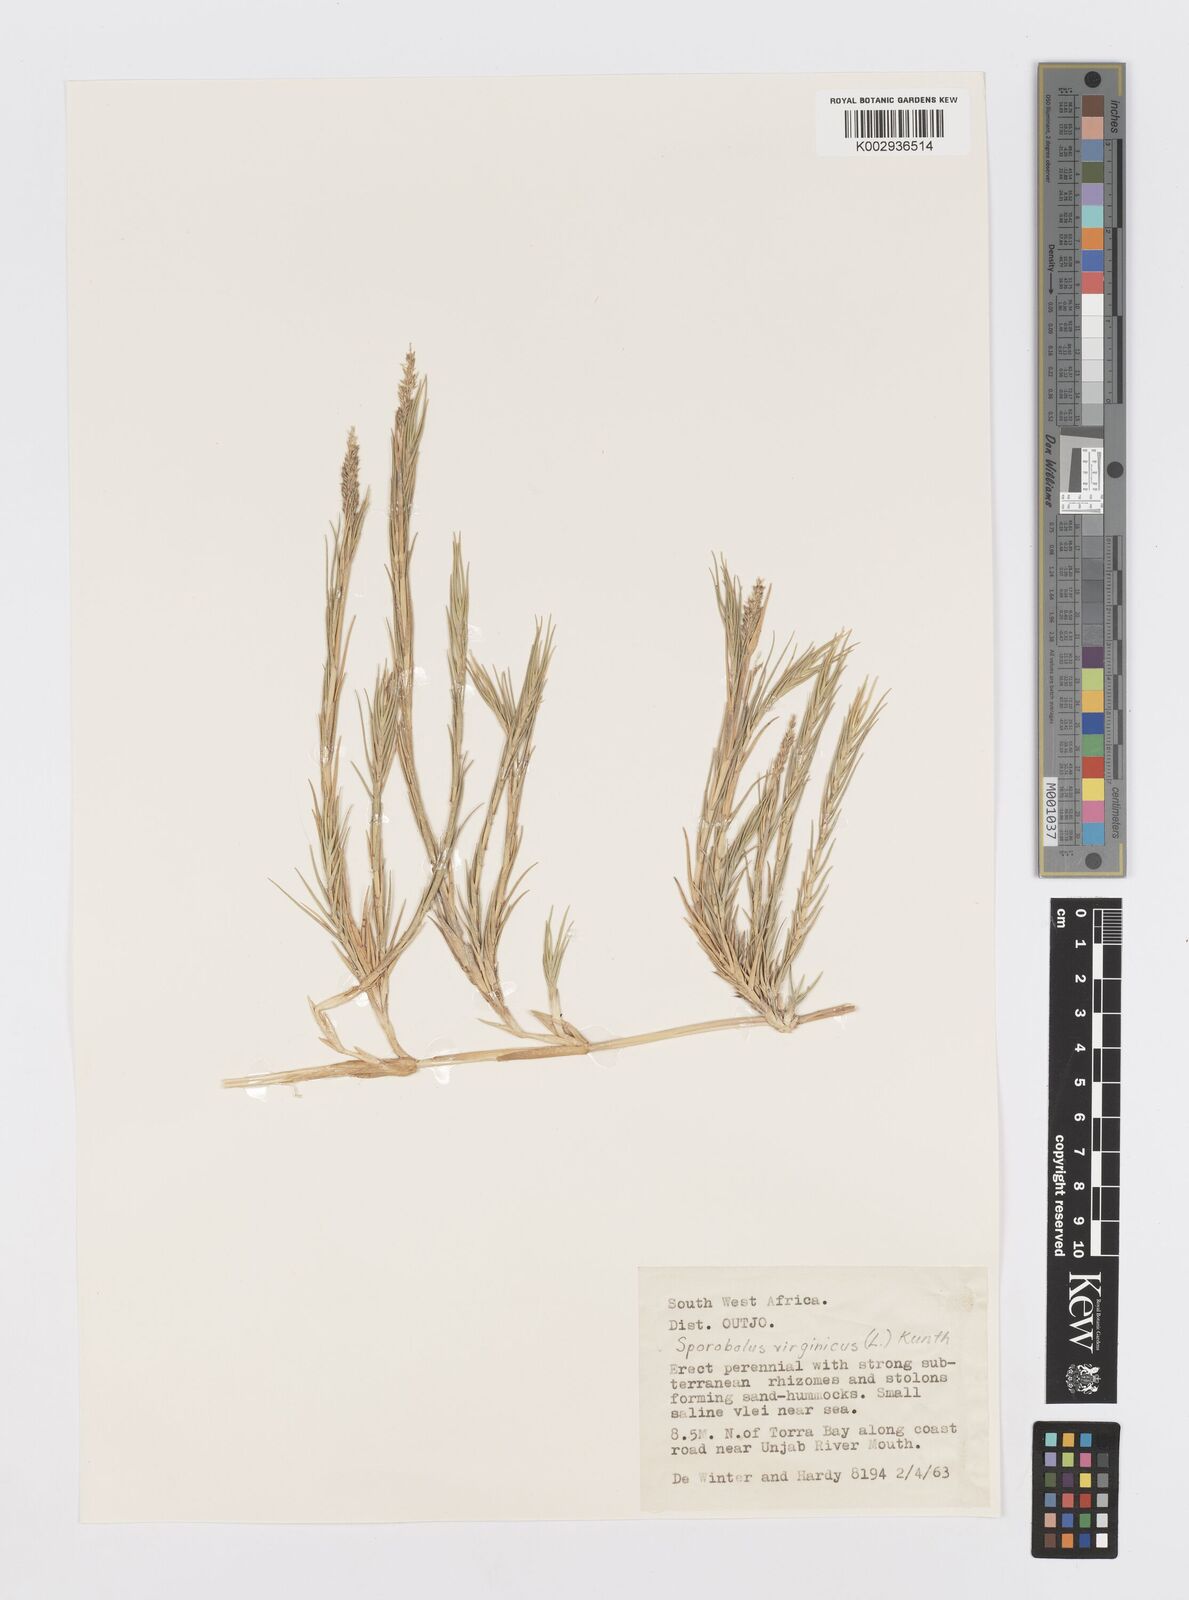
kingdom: Plantae
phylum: Tracheophyta
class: Liliopsida
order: Poales
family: Poaceae
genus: Sporobolus
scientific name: Sporobolus virginicus
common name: Beach dropseed
